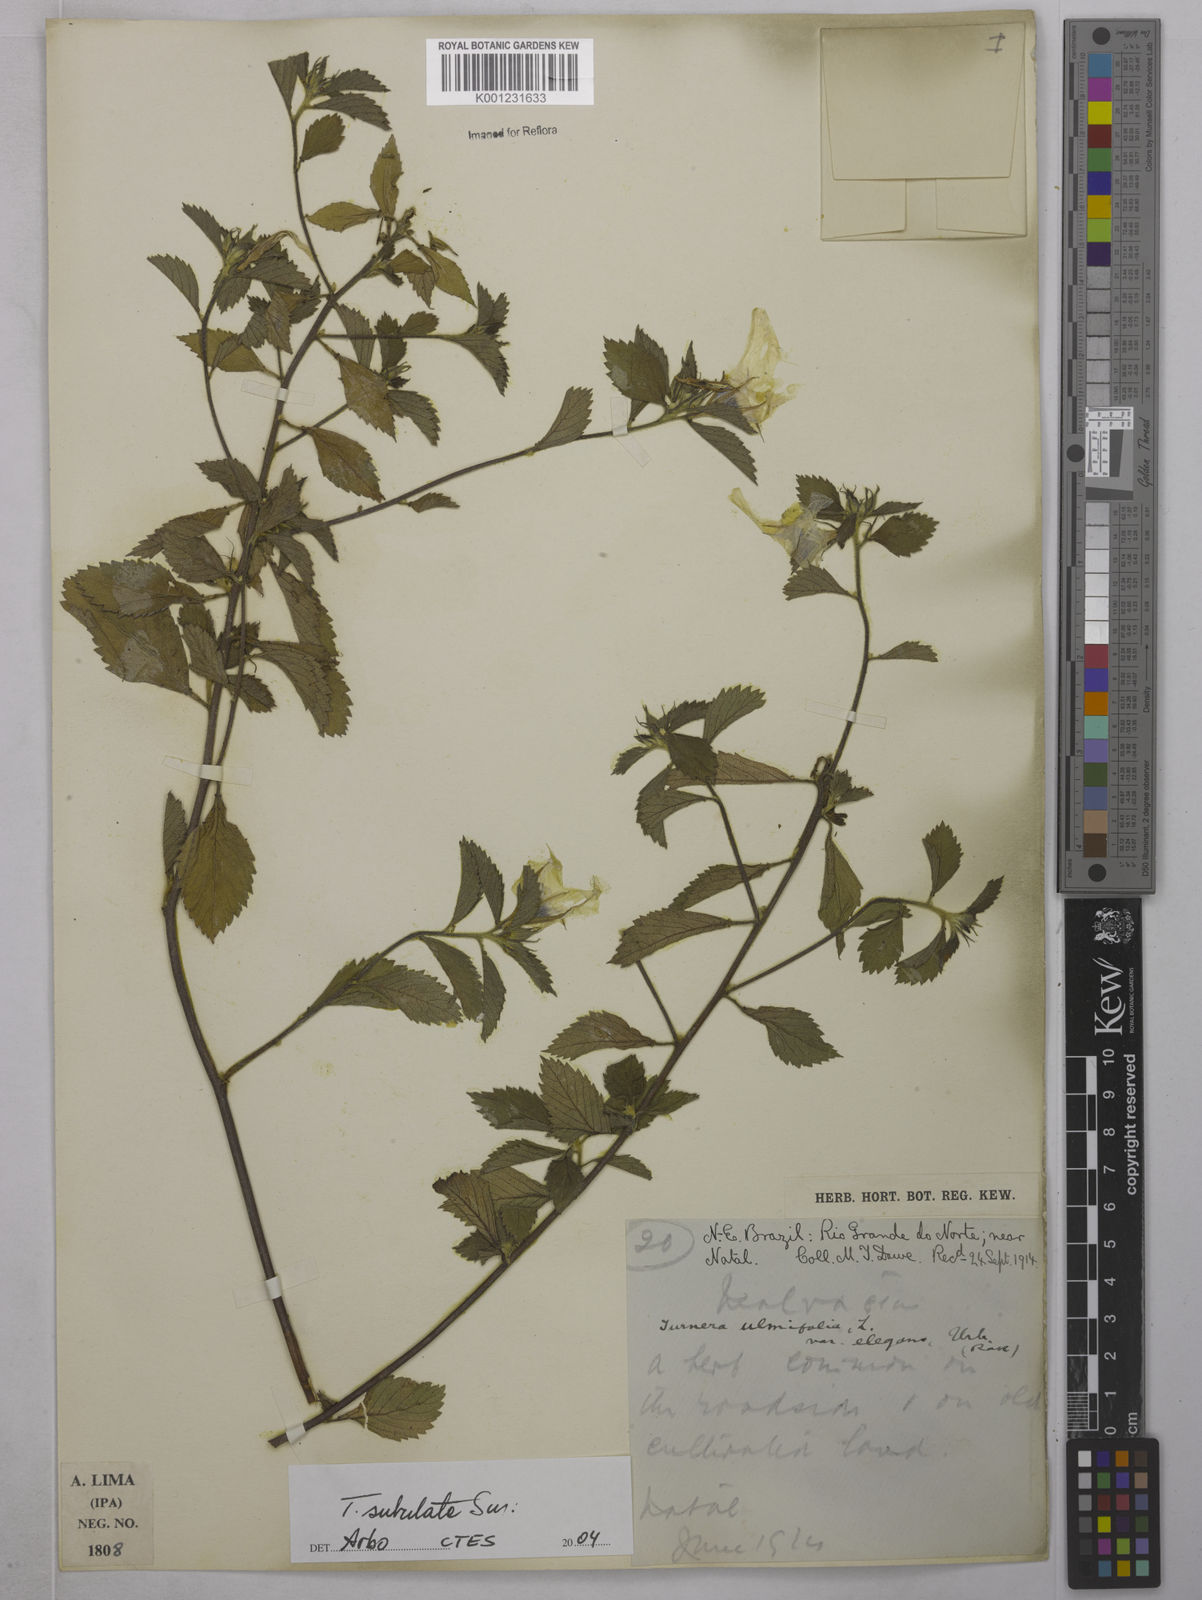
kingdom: Plantae
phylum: Tracheophyta
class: Magnoliopsida
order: Malpighiales
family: Turneraceae
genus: Turnera
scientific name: Turnera subulata
